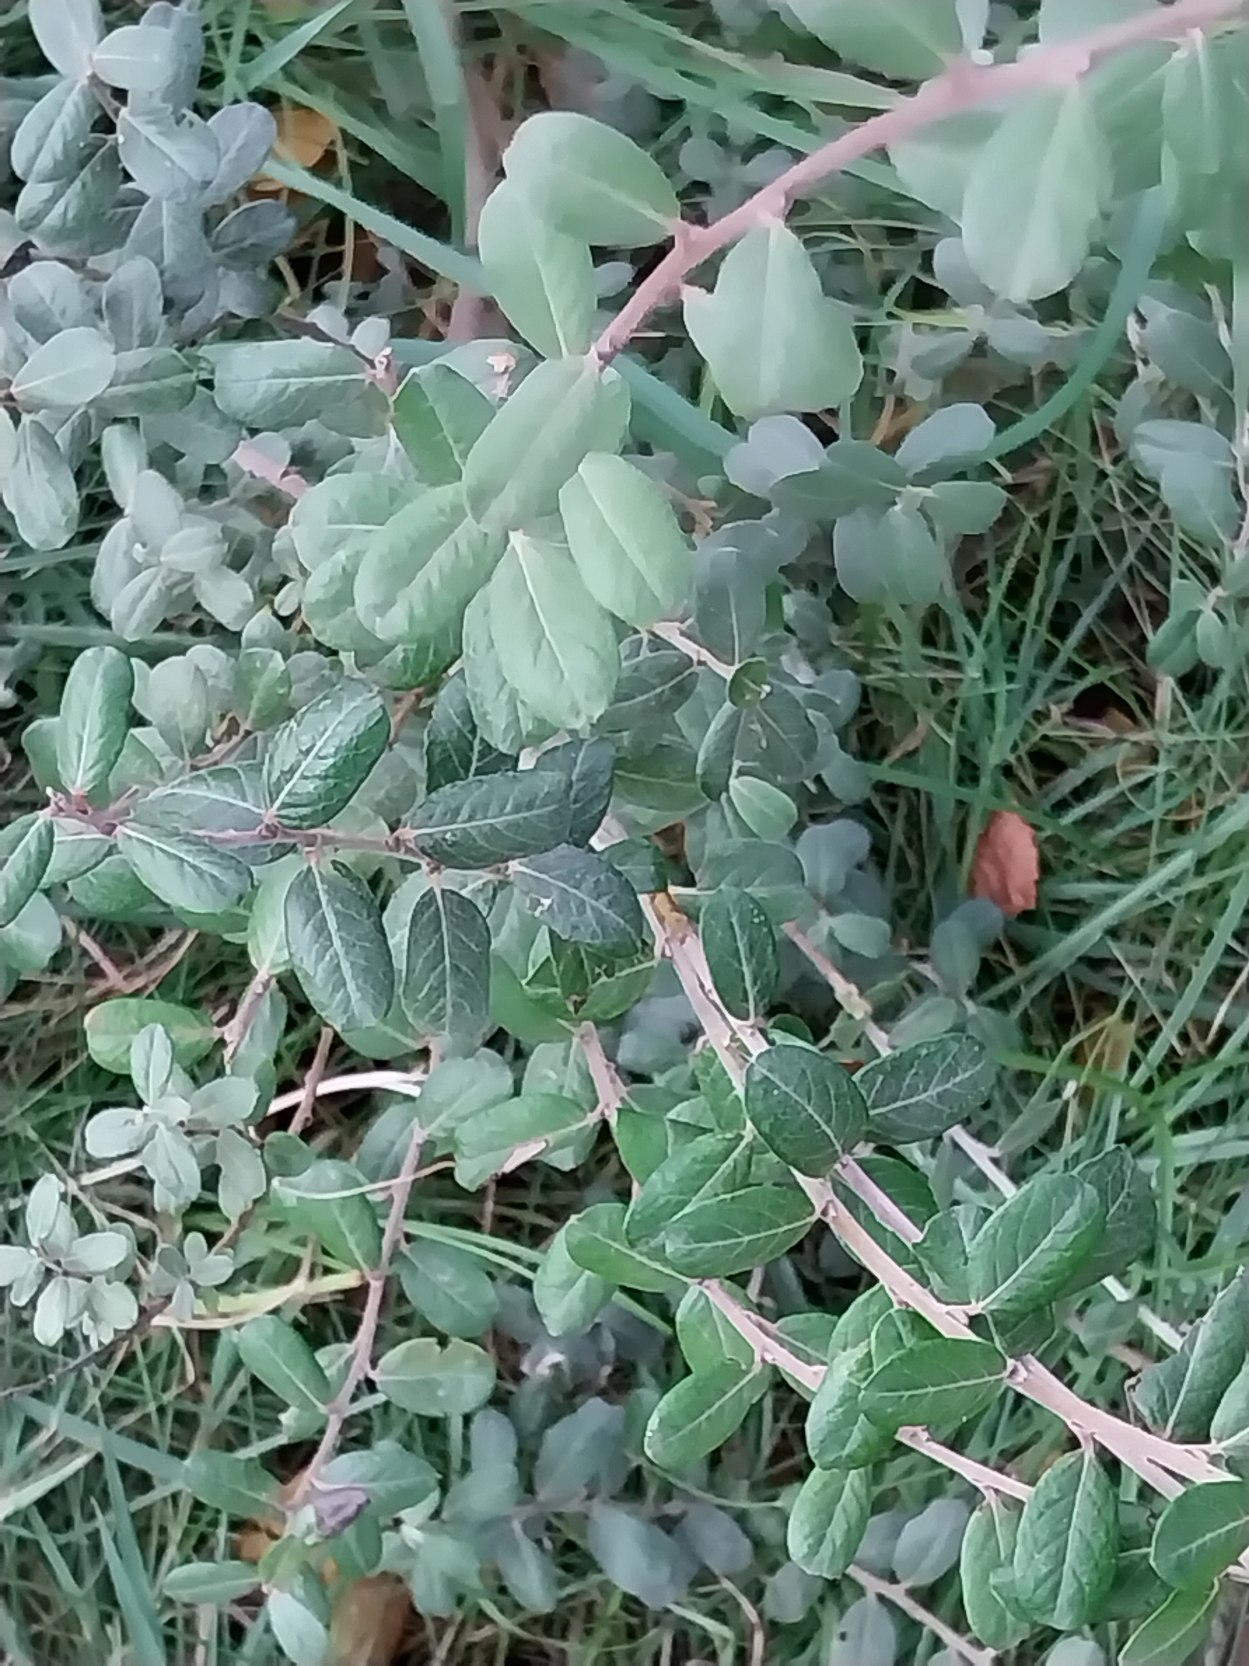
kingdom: Plantae
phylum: Tracheophyta
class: Magnoliopsida
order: Malpighiales
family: Salicaceae
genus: Salix
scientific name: Salix repens
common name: Krybende pil
